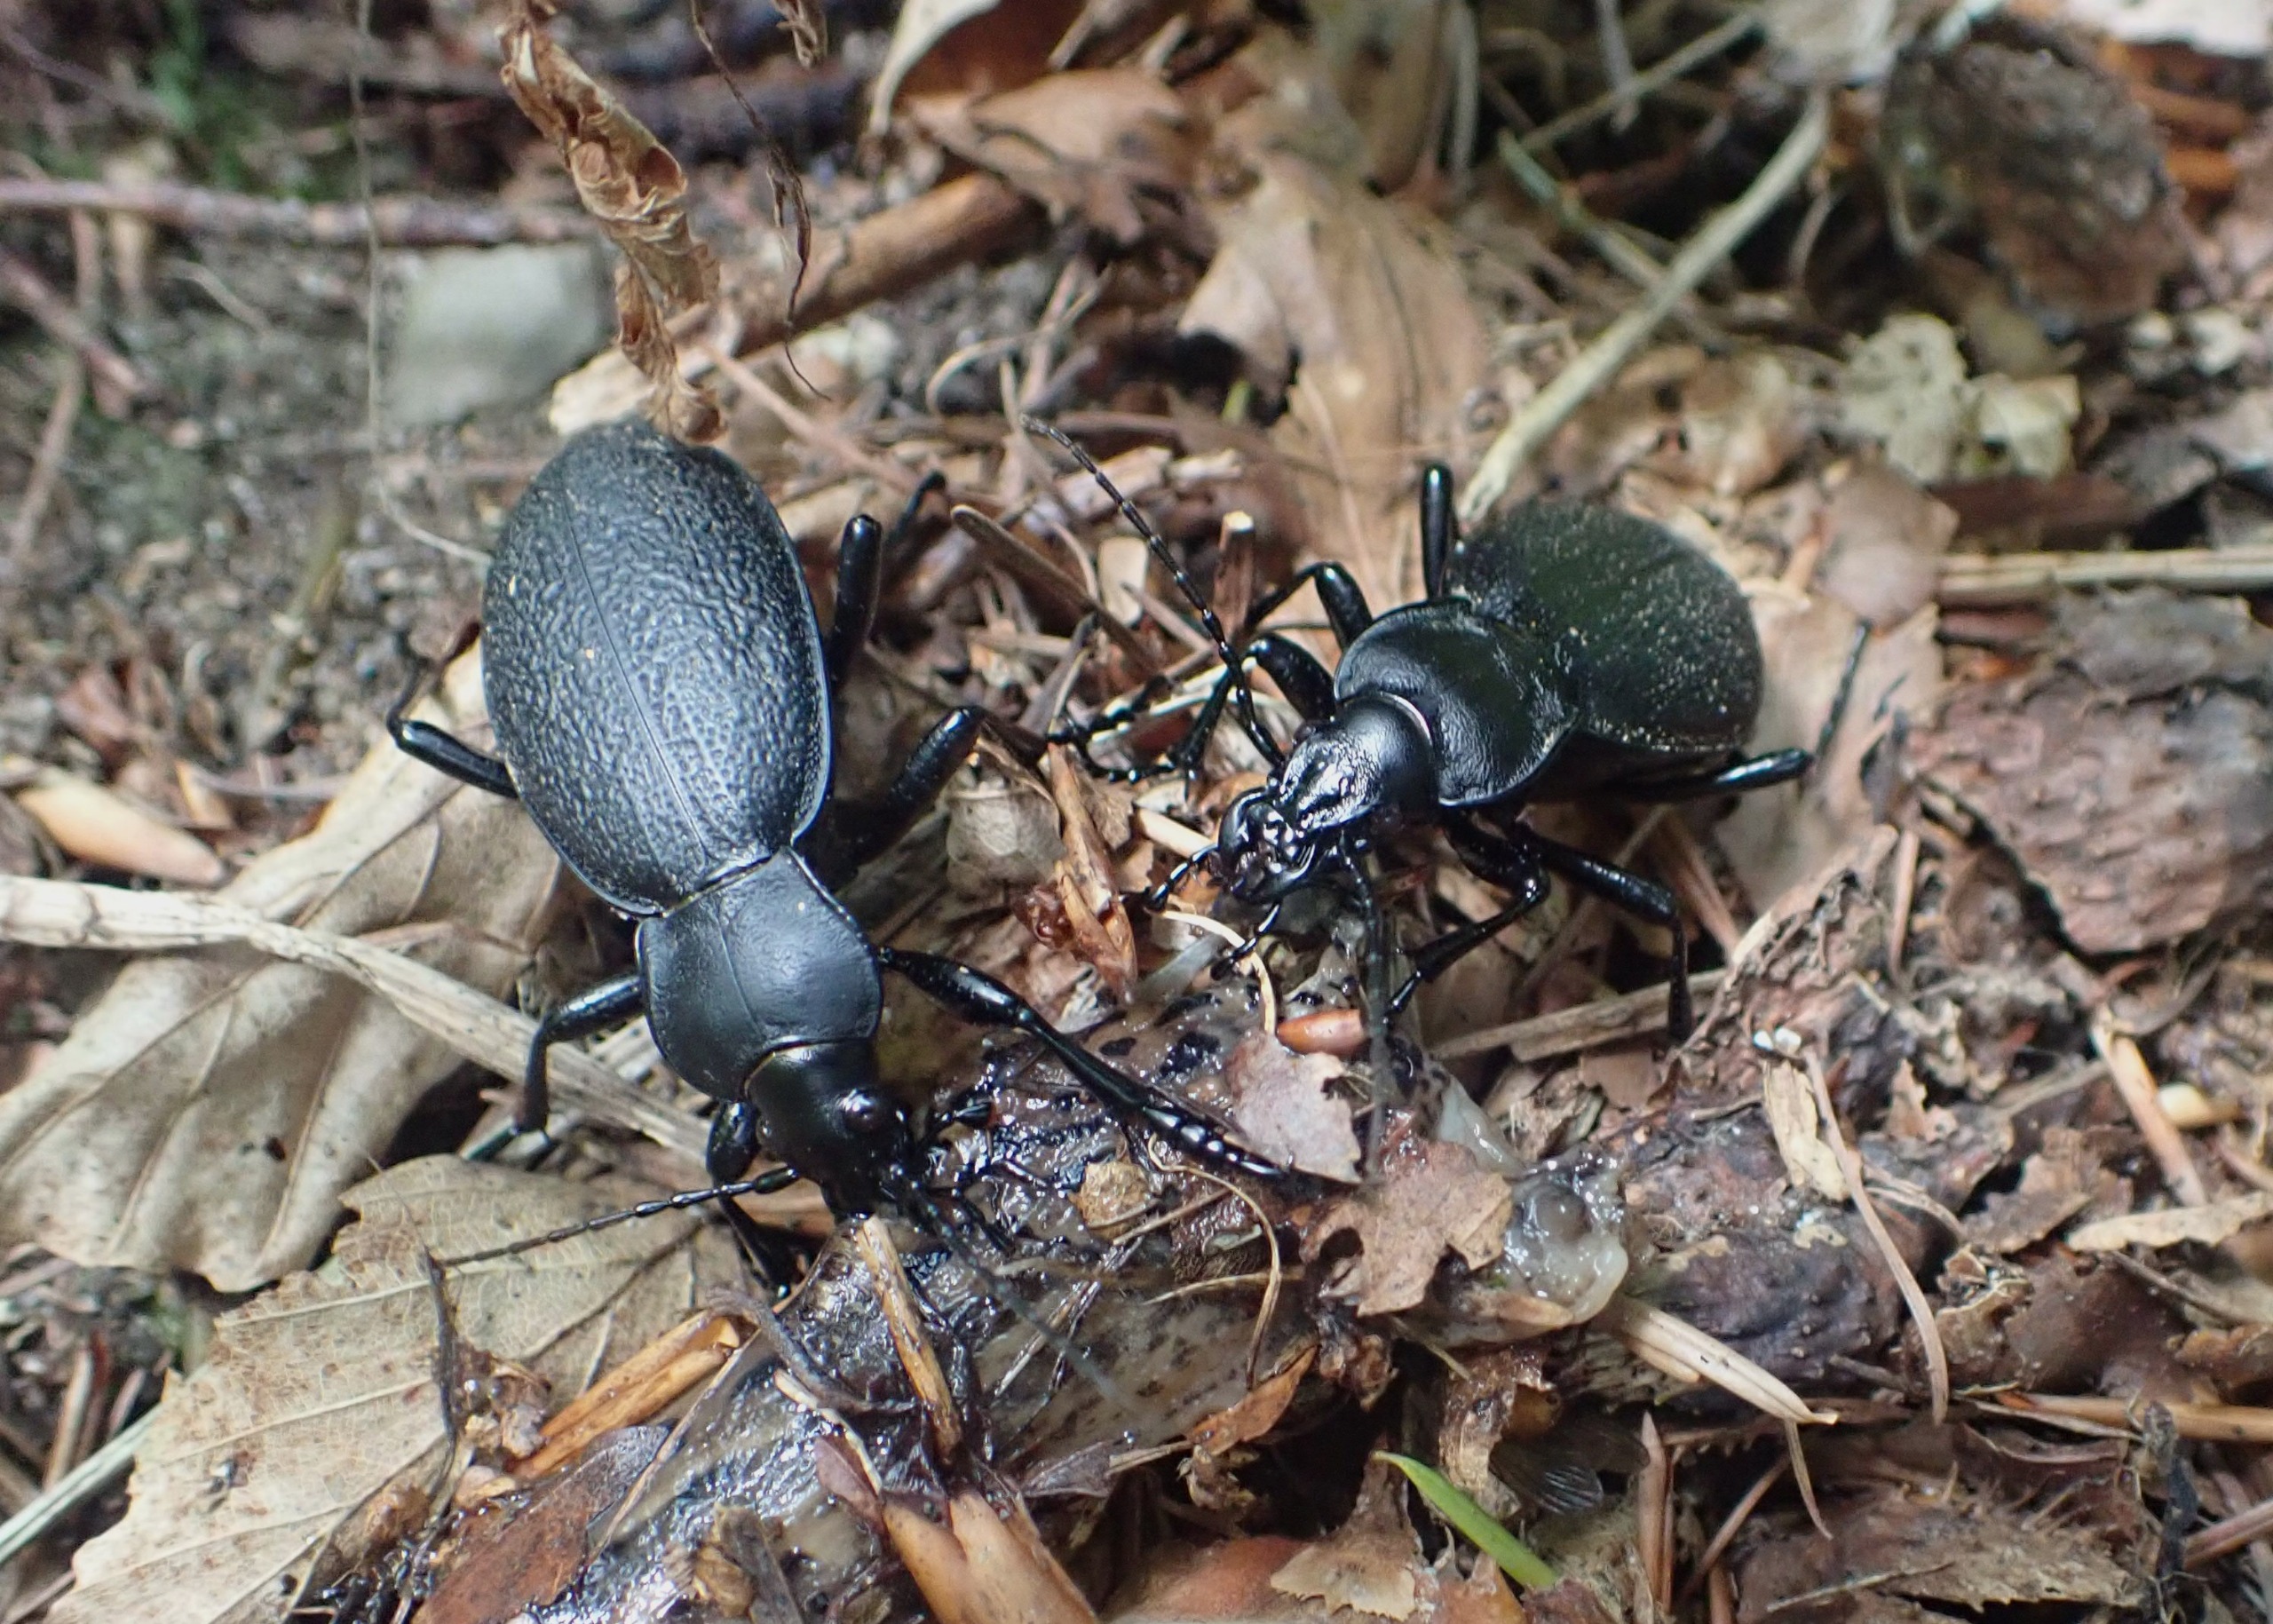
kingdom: Animalia
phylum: Arthropoda
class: Insecta
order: Coleoptera
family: Carabidae
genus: Carabus
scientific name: Carabus coriaceus
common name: Læderløber
